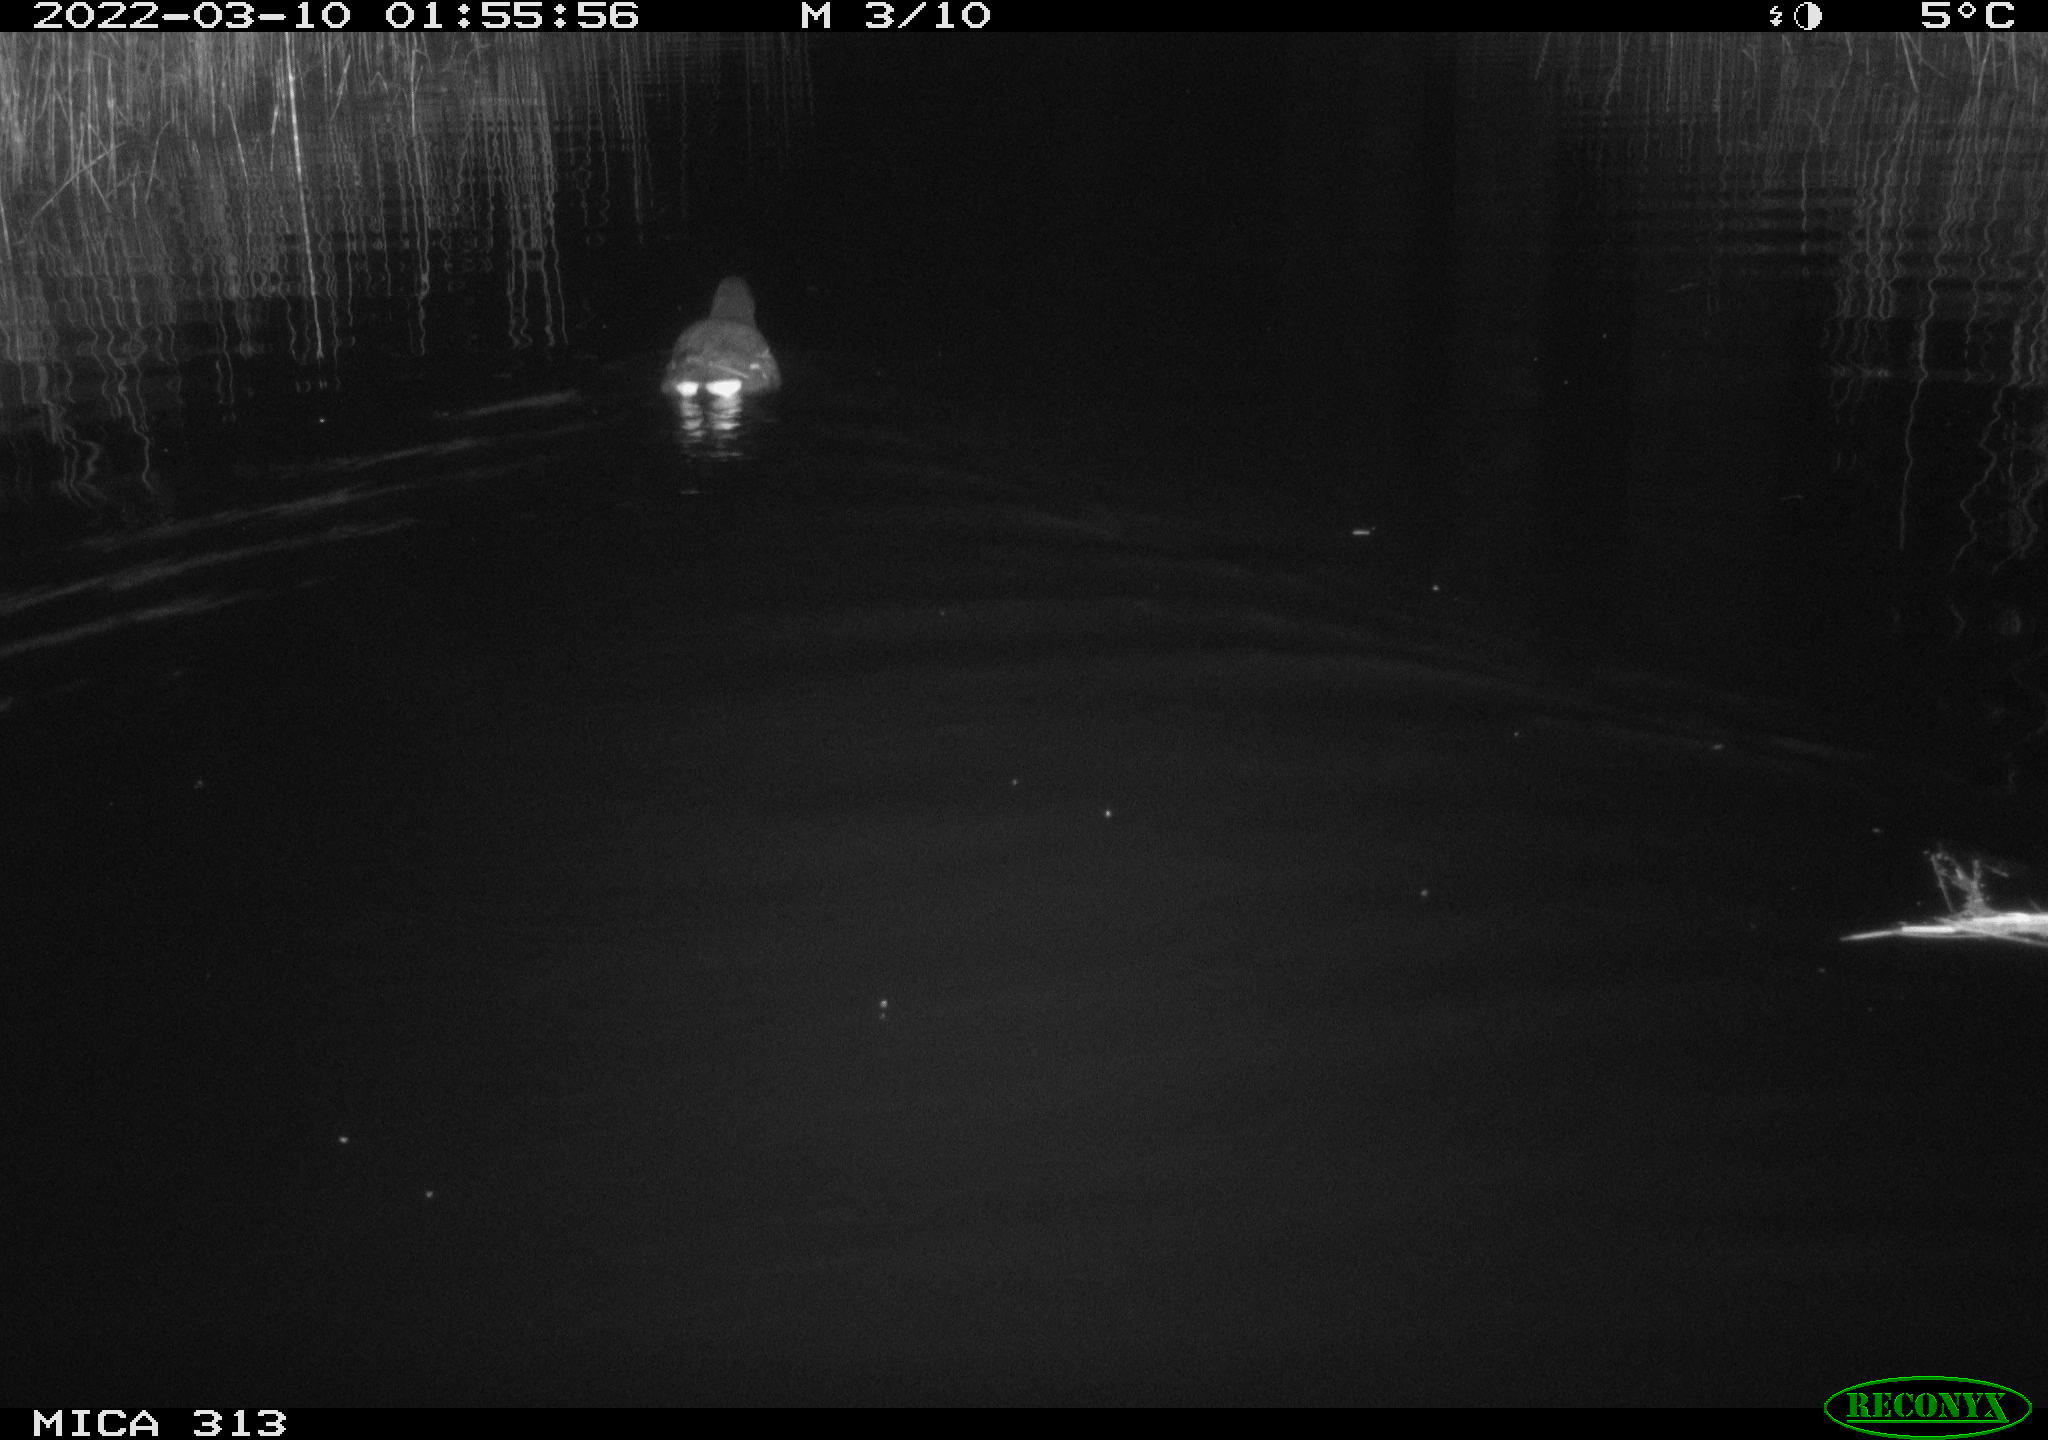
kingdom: Animalia
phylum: Chordata
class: Aves
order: Gruiformes
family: Rallidae
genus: Gallinula
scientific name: Gallinula chloropus
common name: Common moorhen
